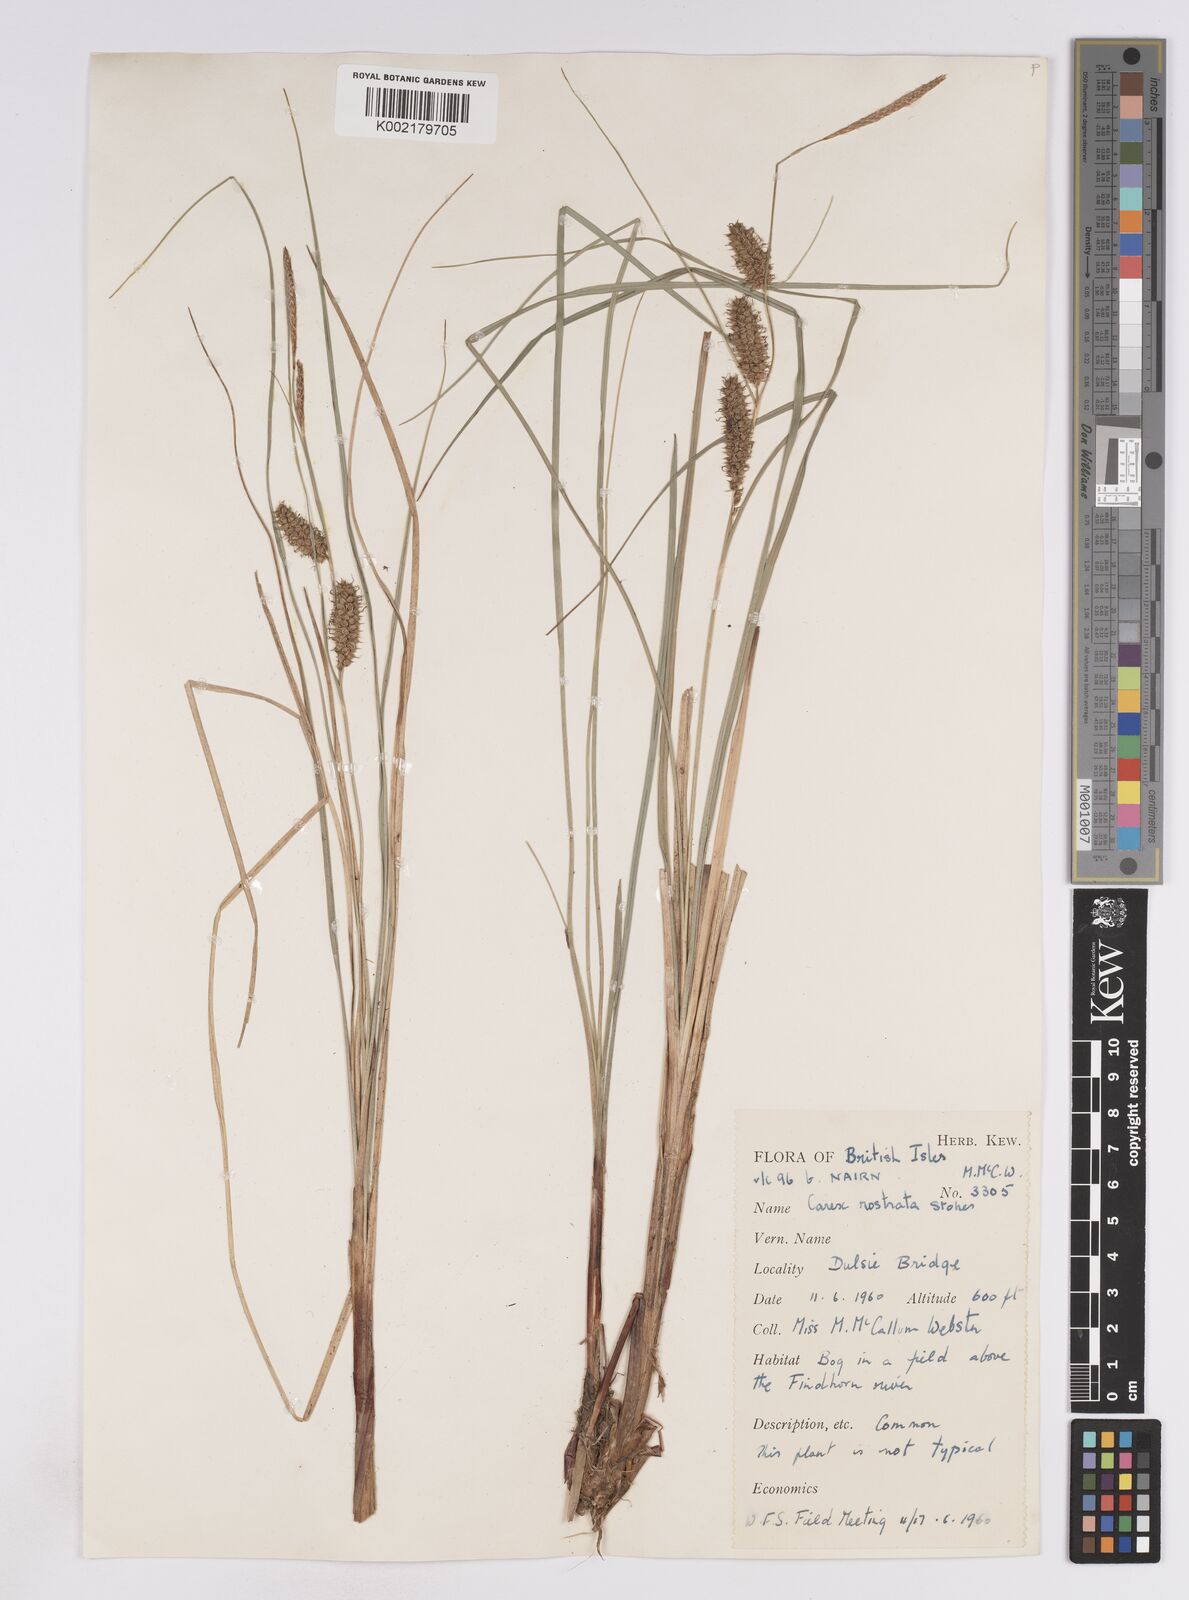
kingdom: Plantae
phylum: Tracheophyta
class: Liliopsida
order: Poales
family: Cyperaceae
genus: Carex
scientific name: Carex rostrata
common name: Bottle sedge
